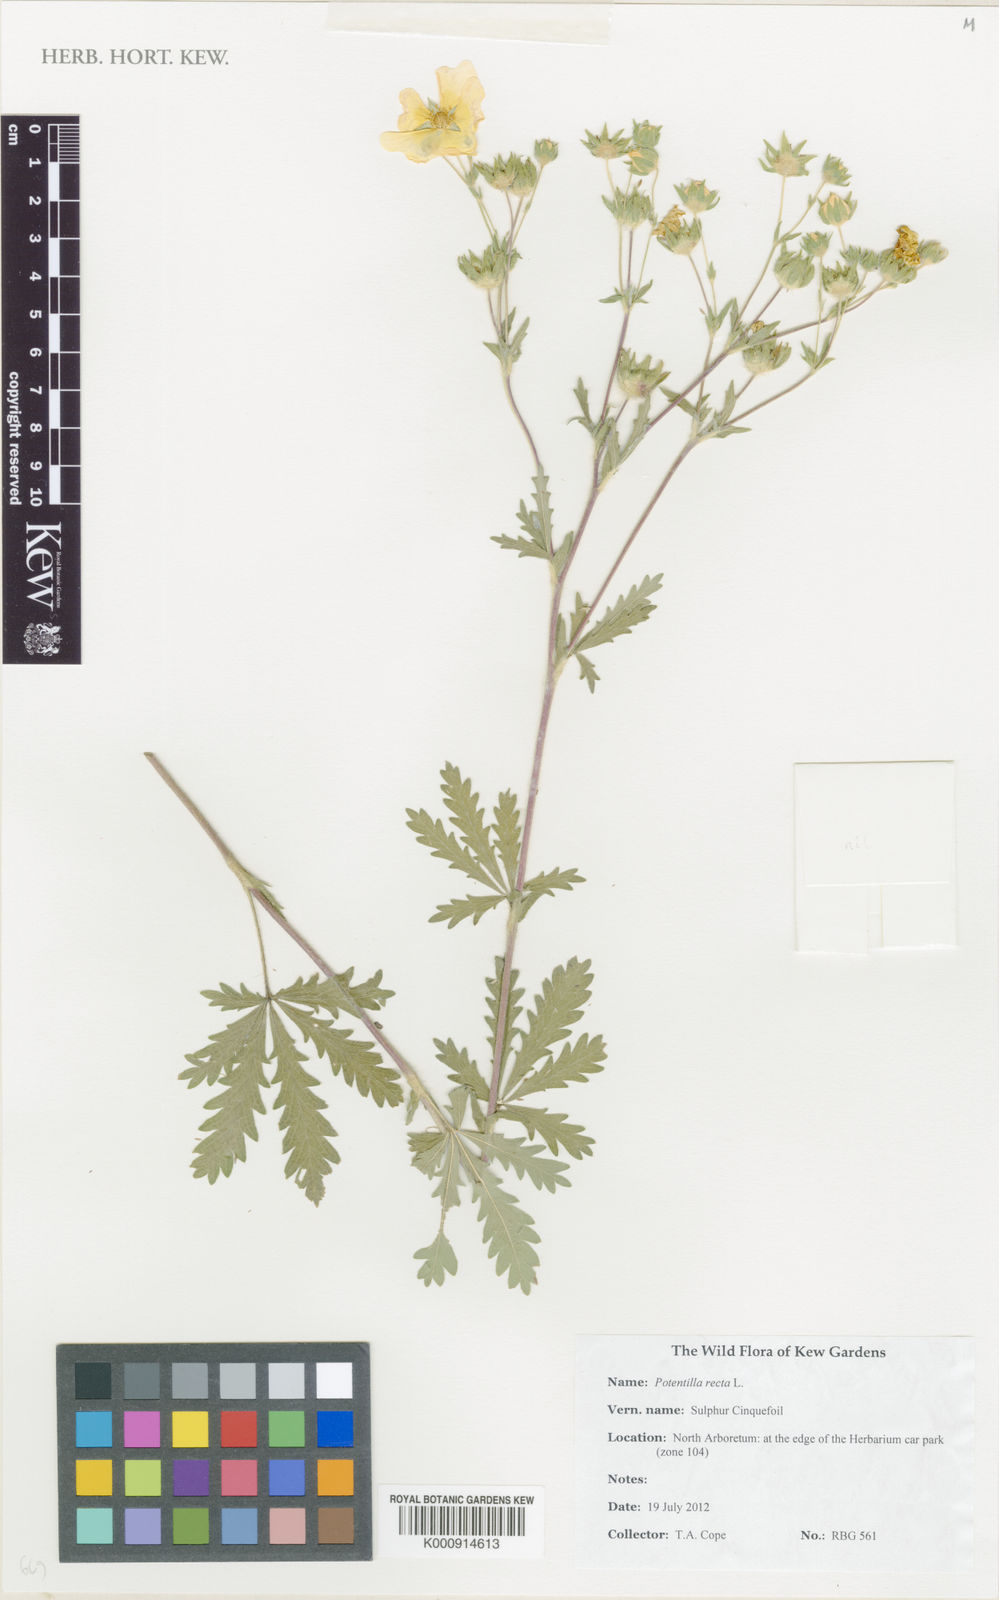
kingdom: Plantae
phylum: Tracheophyta
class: Magnoliopsida
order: Rosales
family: Rosaceae
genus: Potentilla
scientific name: Potentilla recta
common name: Sulphur cinquefoil
